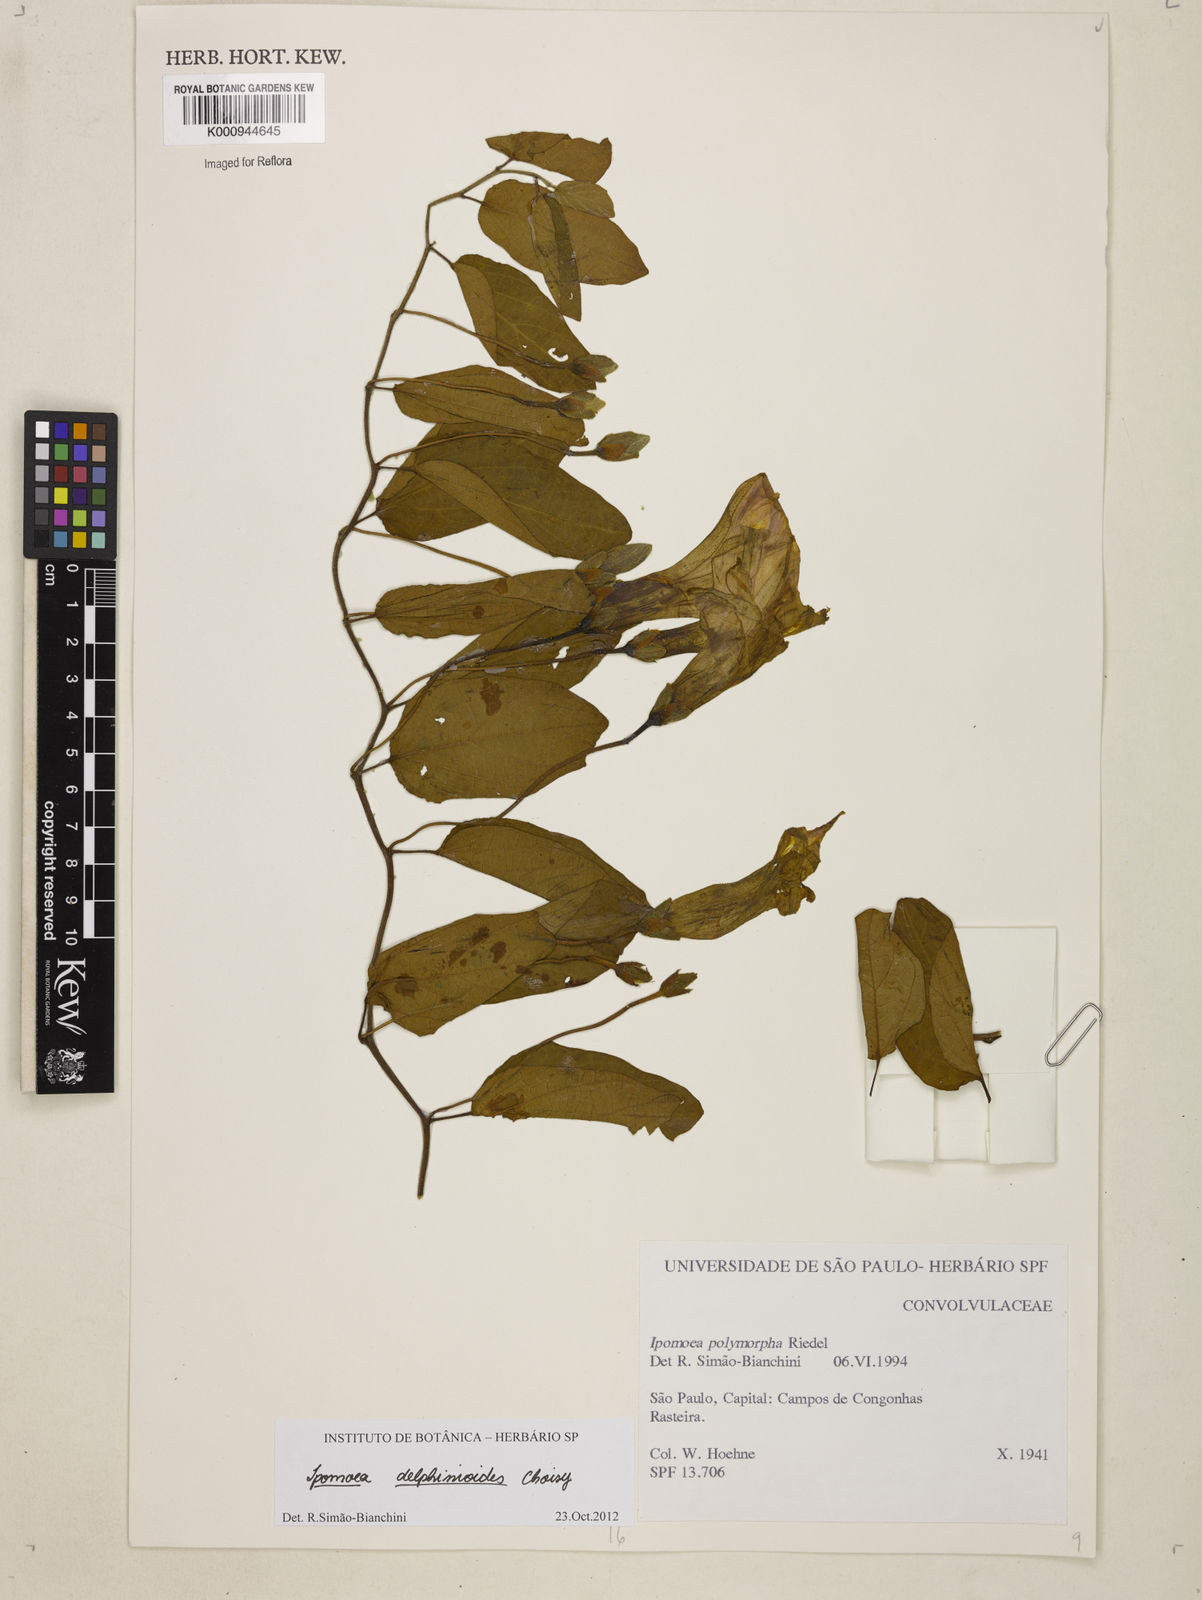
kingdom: Plantae
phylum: Tracheophyta
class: Magnoliopsida
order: Solanales
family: Convolvulaceae
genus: Ipomoea
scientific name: Ipomoea delphinioides
